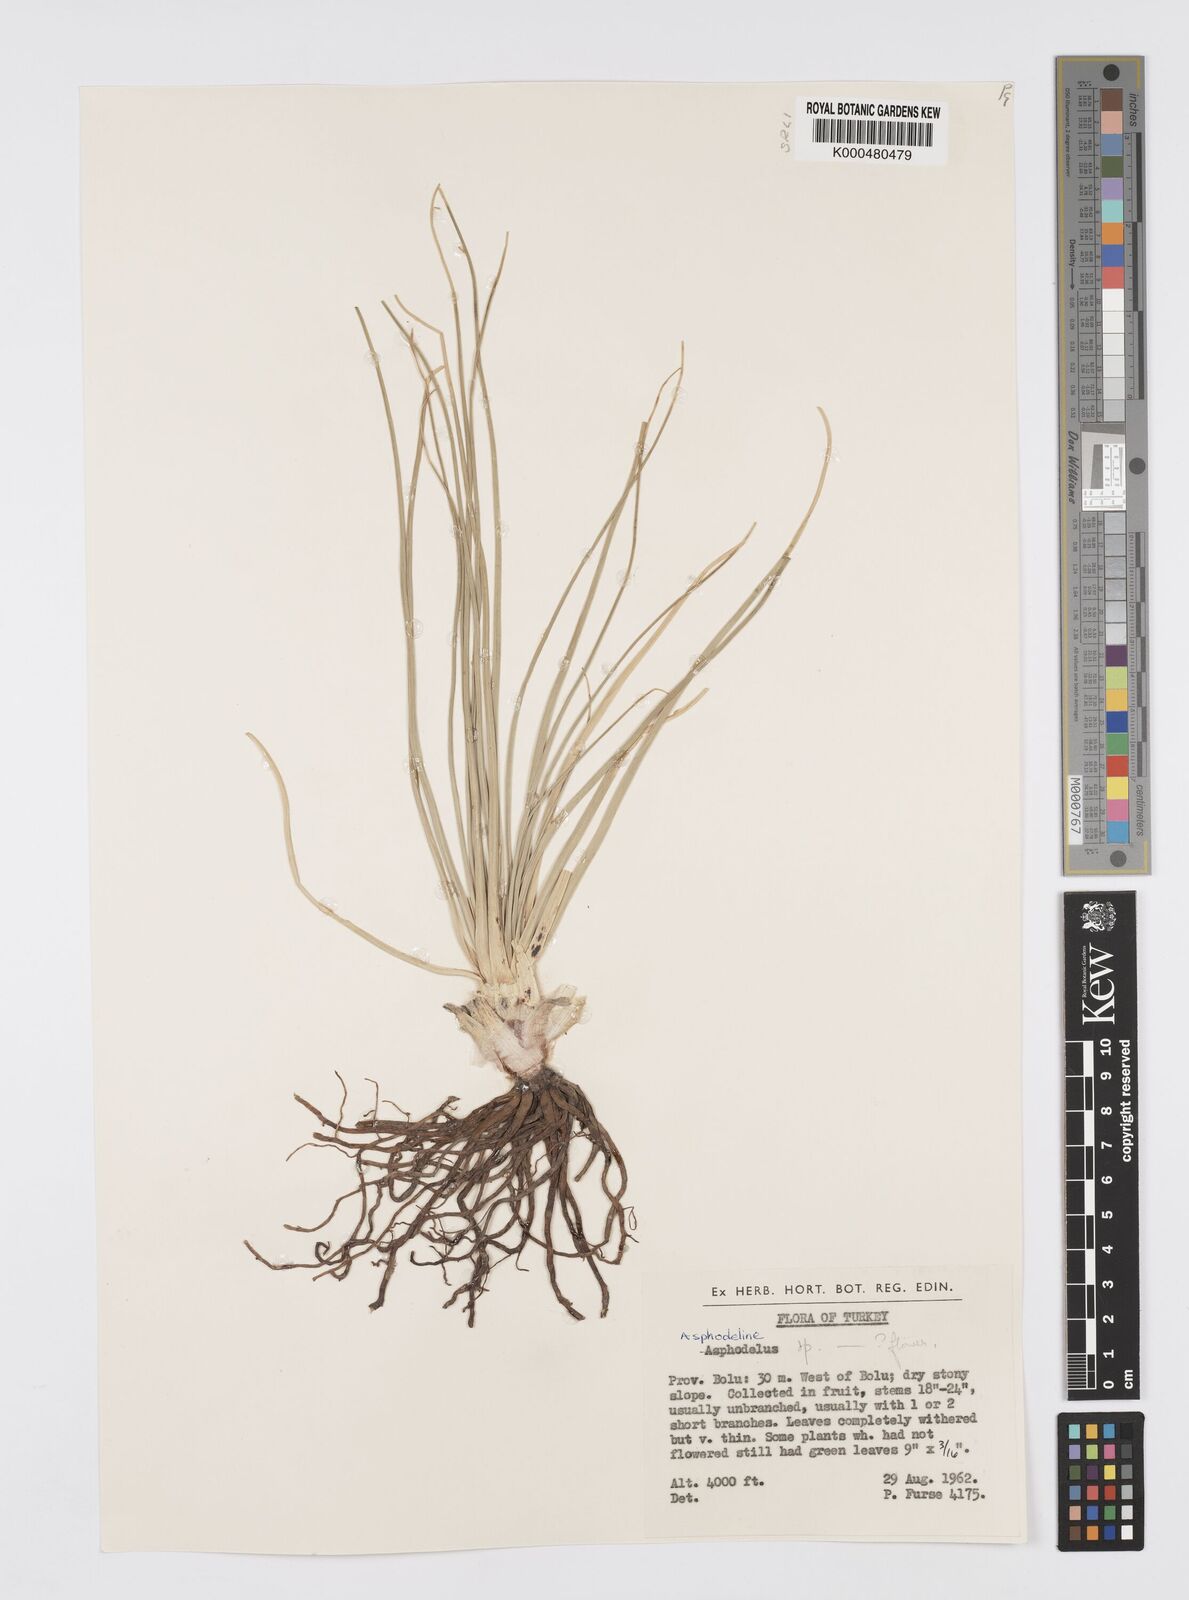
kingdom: Plantae
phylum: Tracheophyta
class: Liliopsida
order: Asparagales
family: Asphodelaceae
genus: Asphodelus
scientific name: Asphodelus fistulosus
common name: Onionweed
